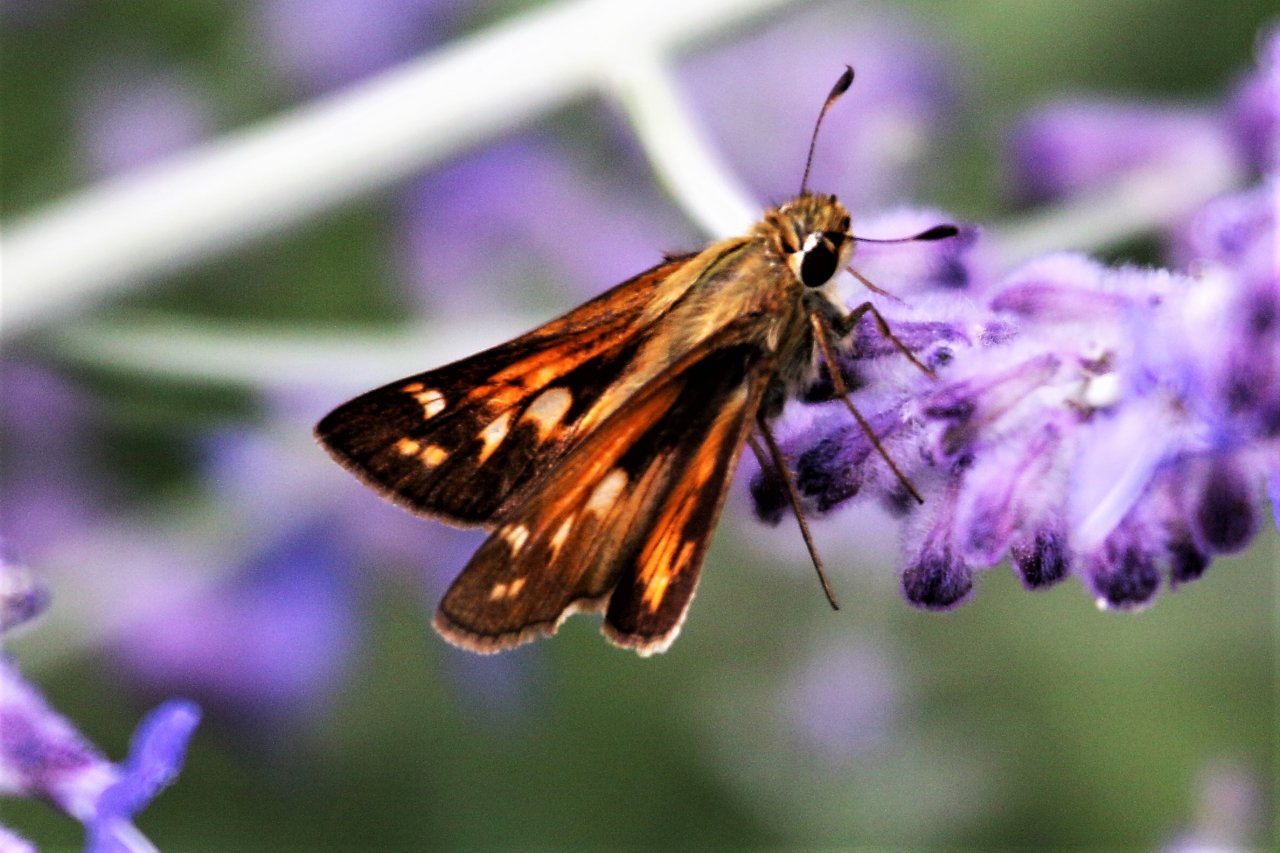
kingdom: Animalia
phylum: Arthropoda
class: Insecta
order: Lepidoptera
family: Hesperiidae
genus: Atalopedes
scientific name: Atalopedes campestris
